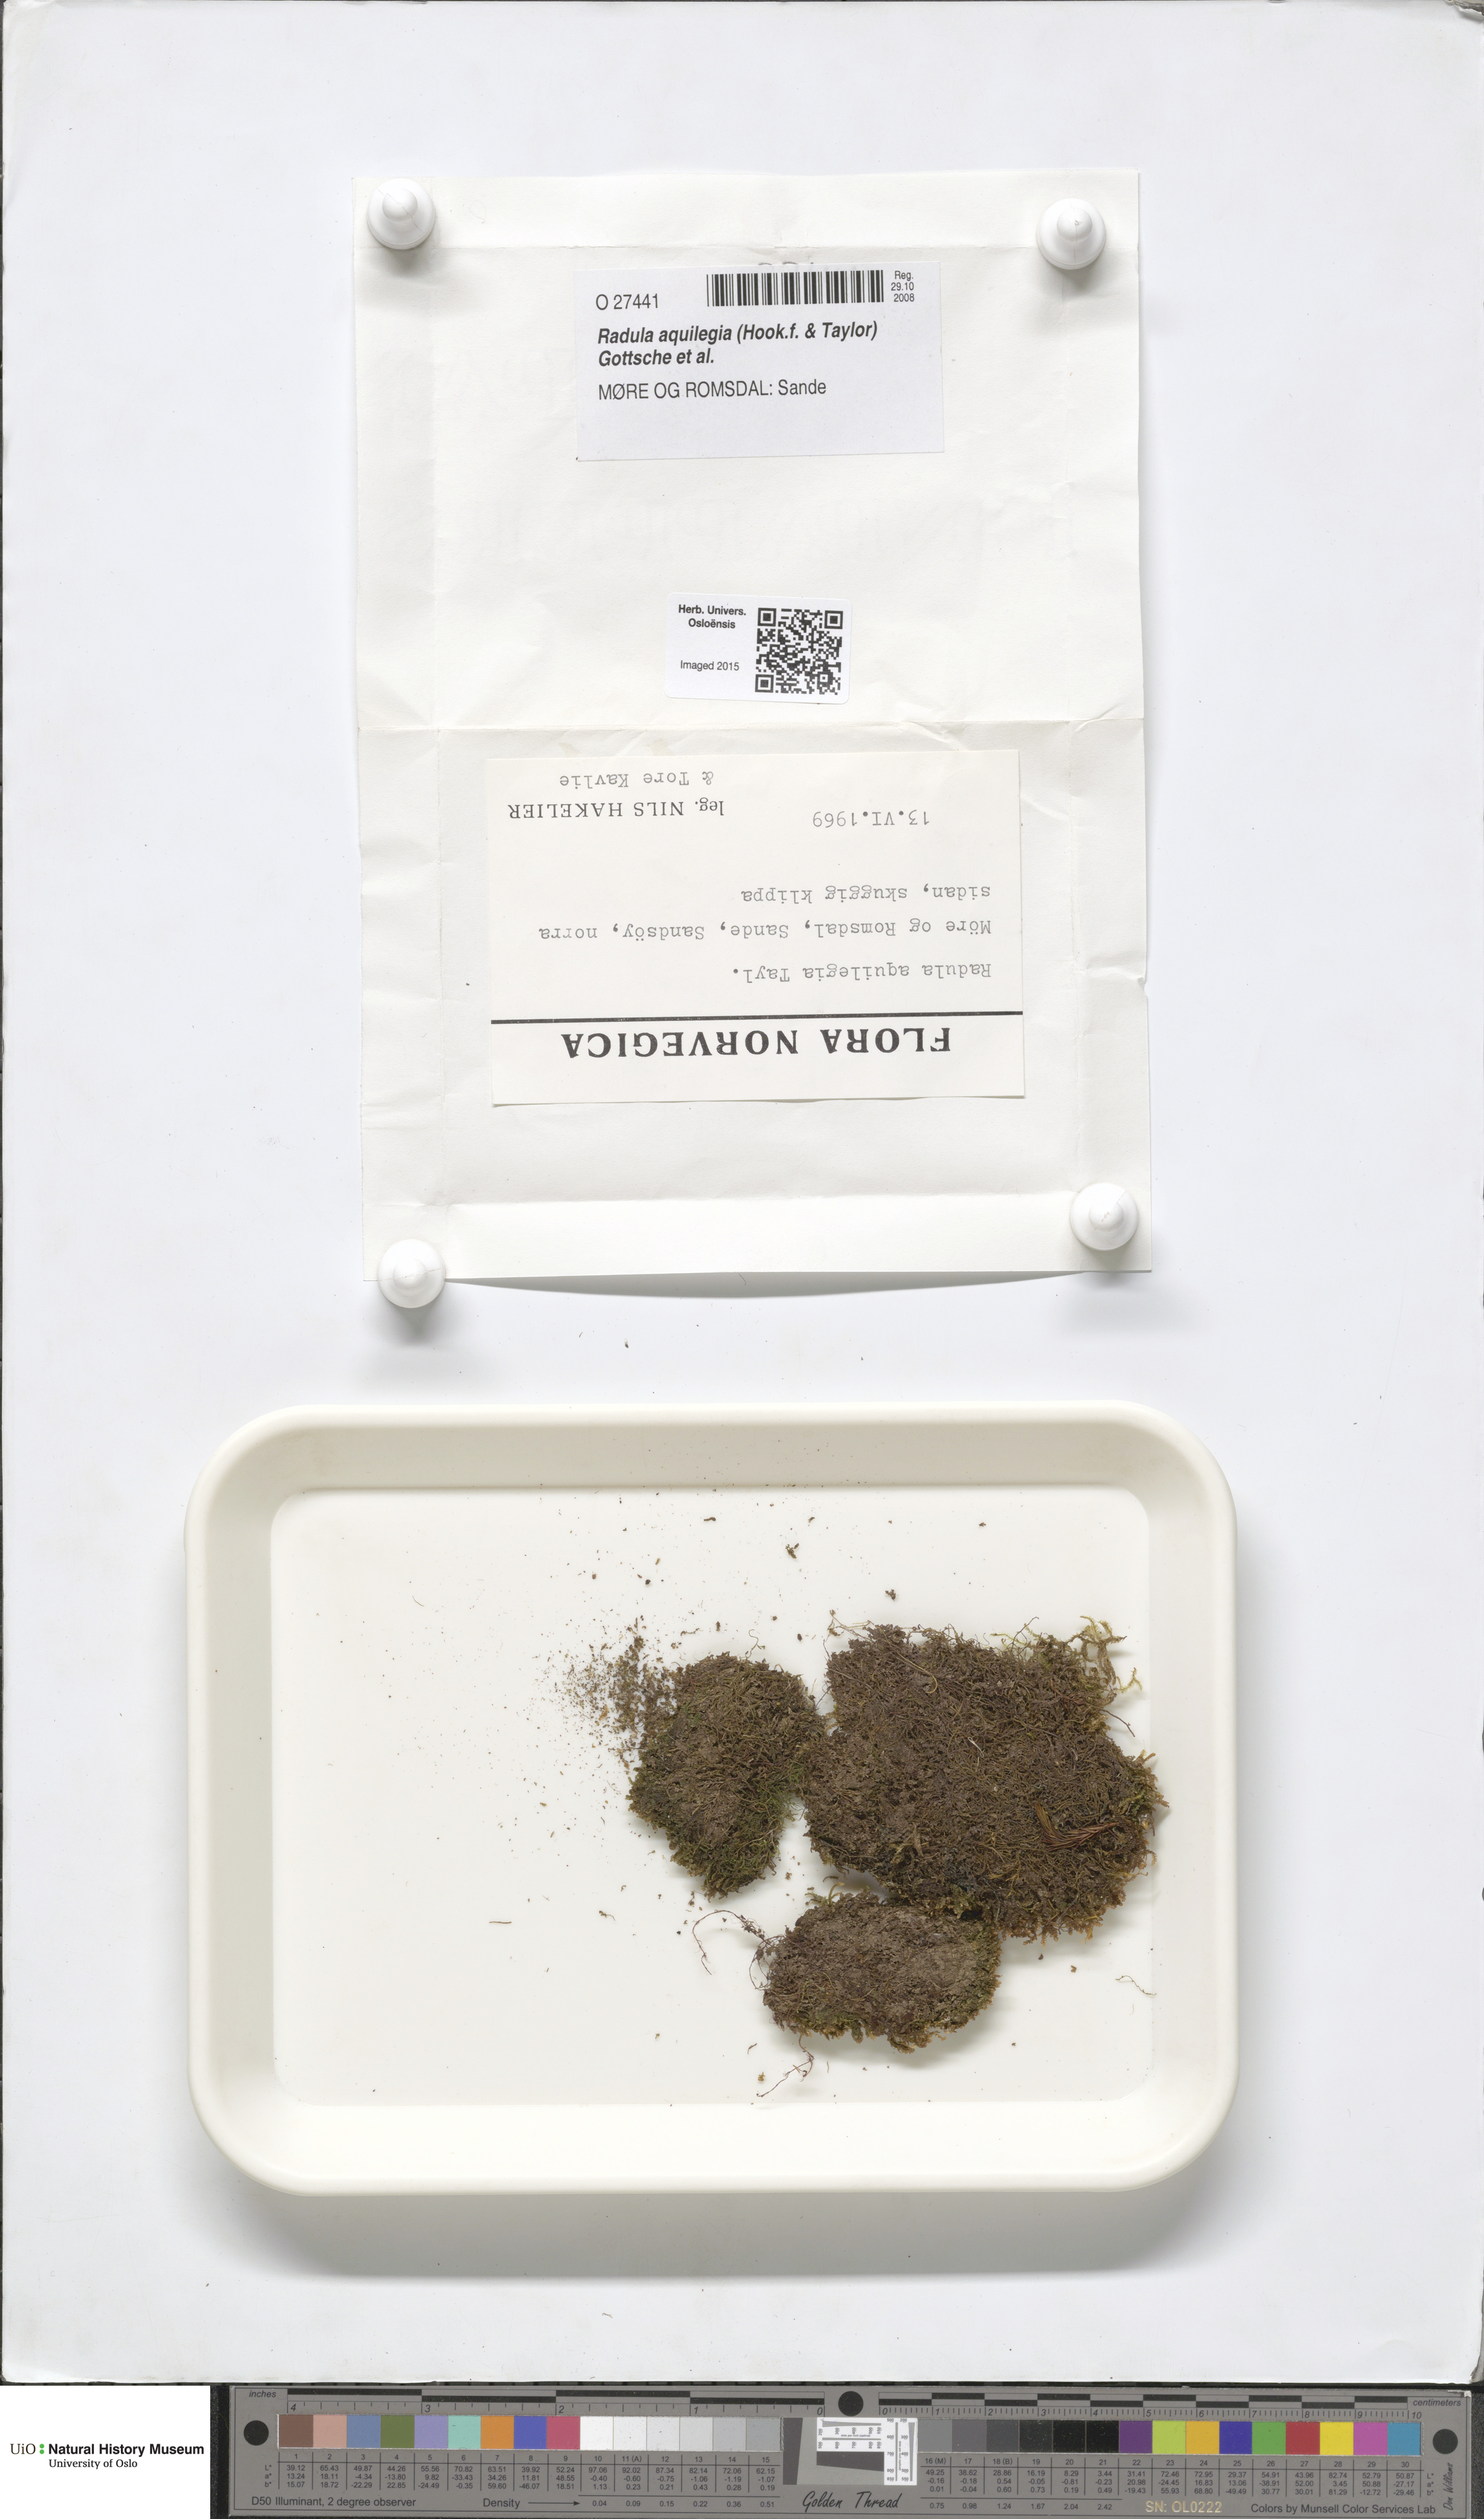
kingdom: Plantae
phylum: Marchantiophyta
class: Jungermanniopsida
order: Porellales
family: Radulaceae
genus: Radula
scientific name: Radula aquilegia
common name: Brown scalewort
